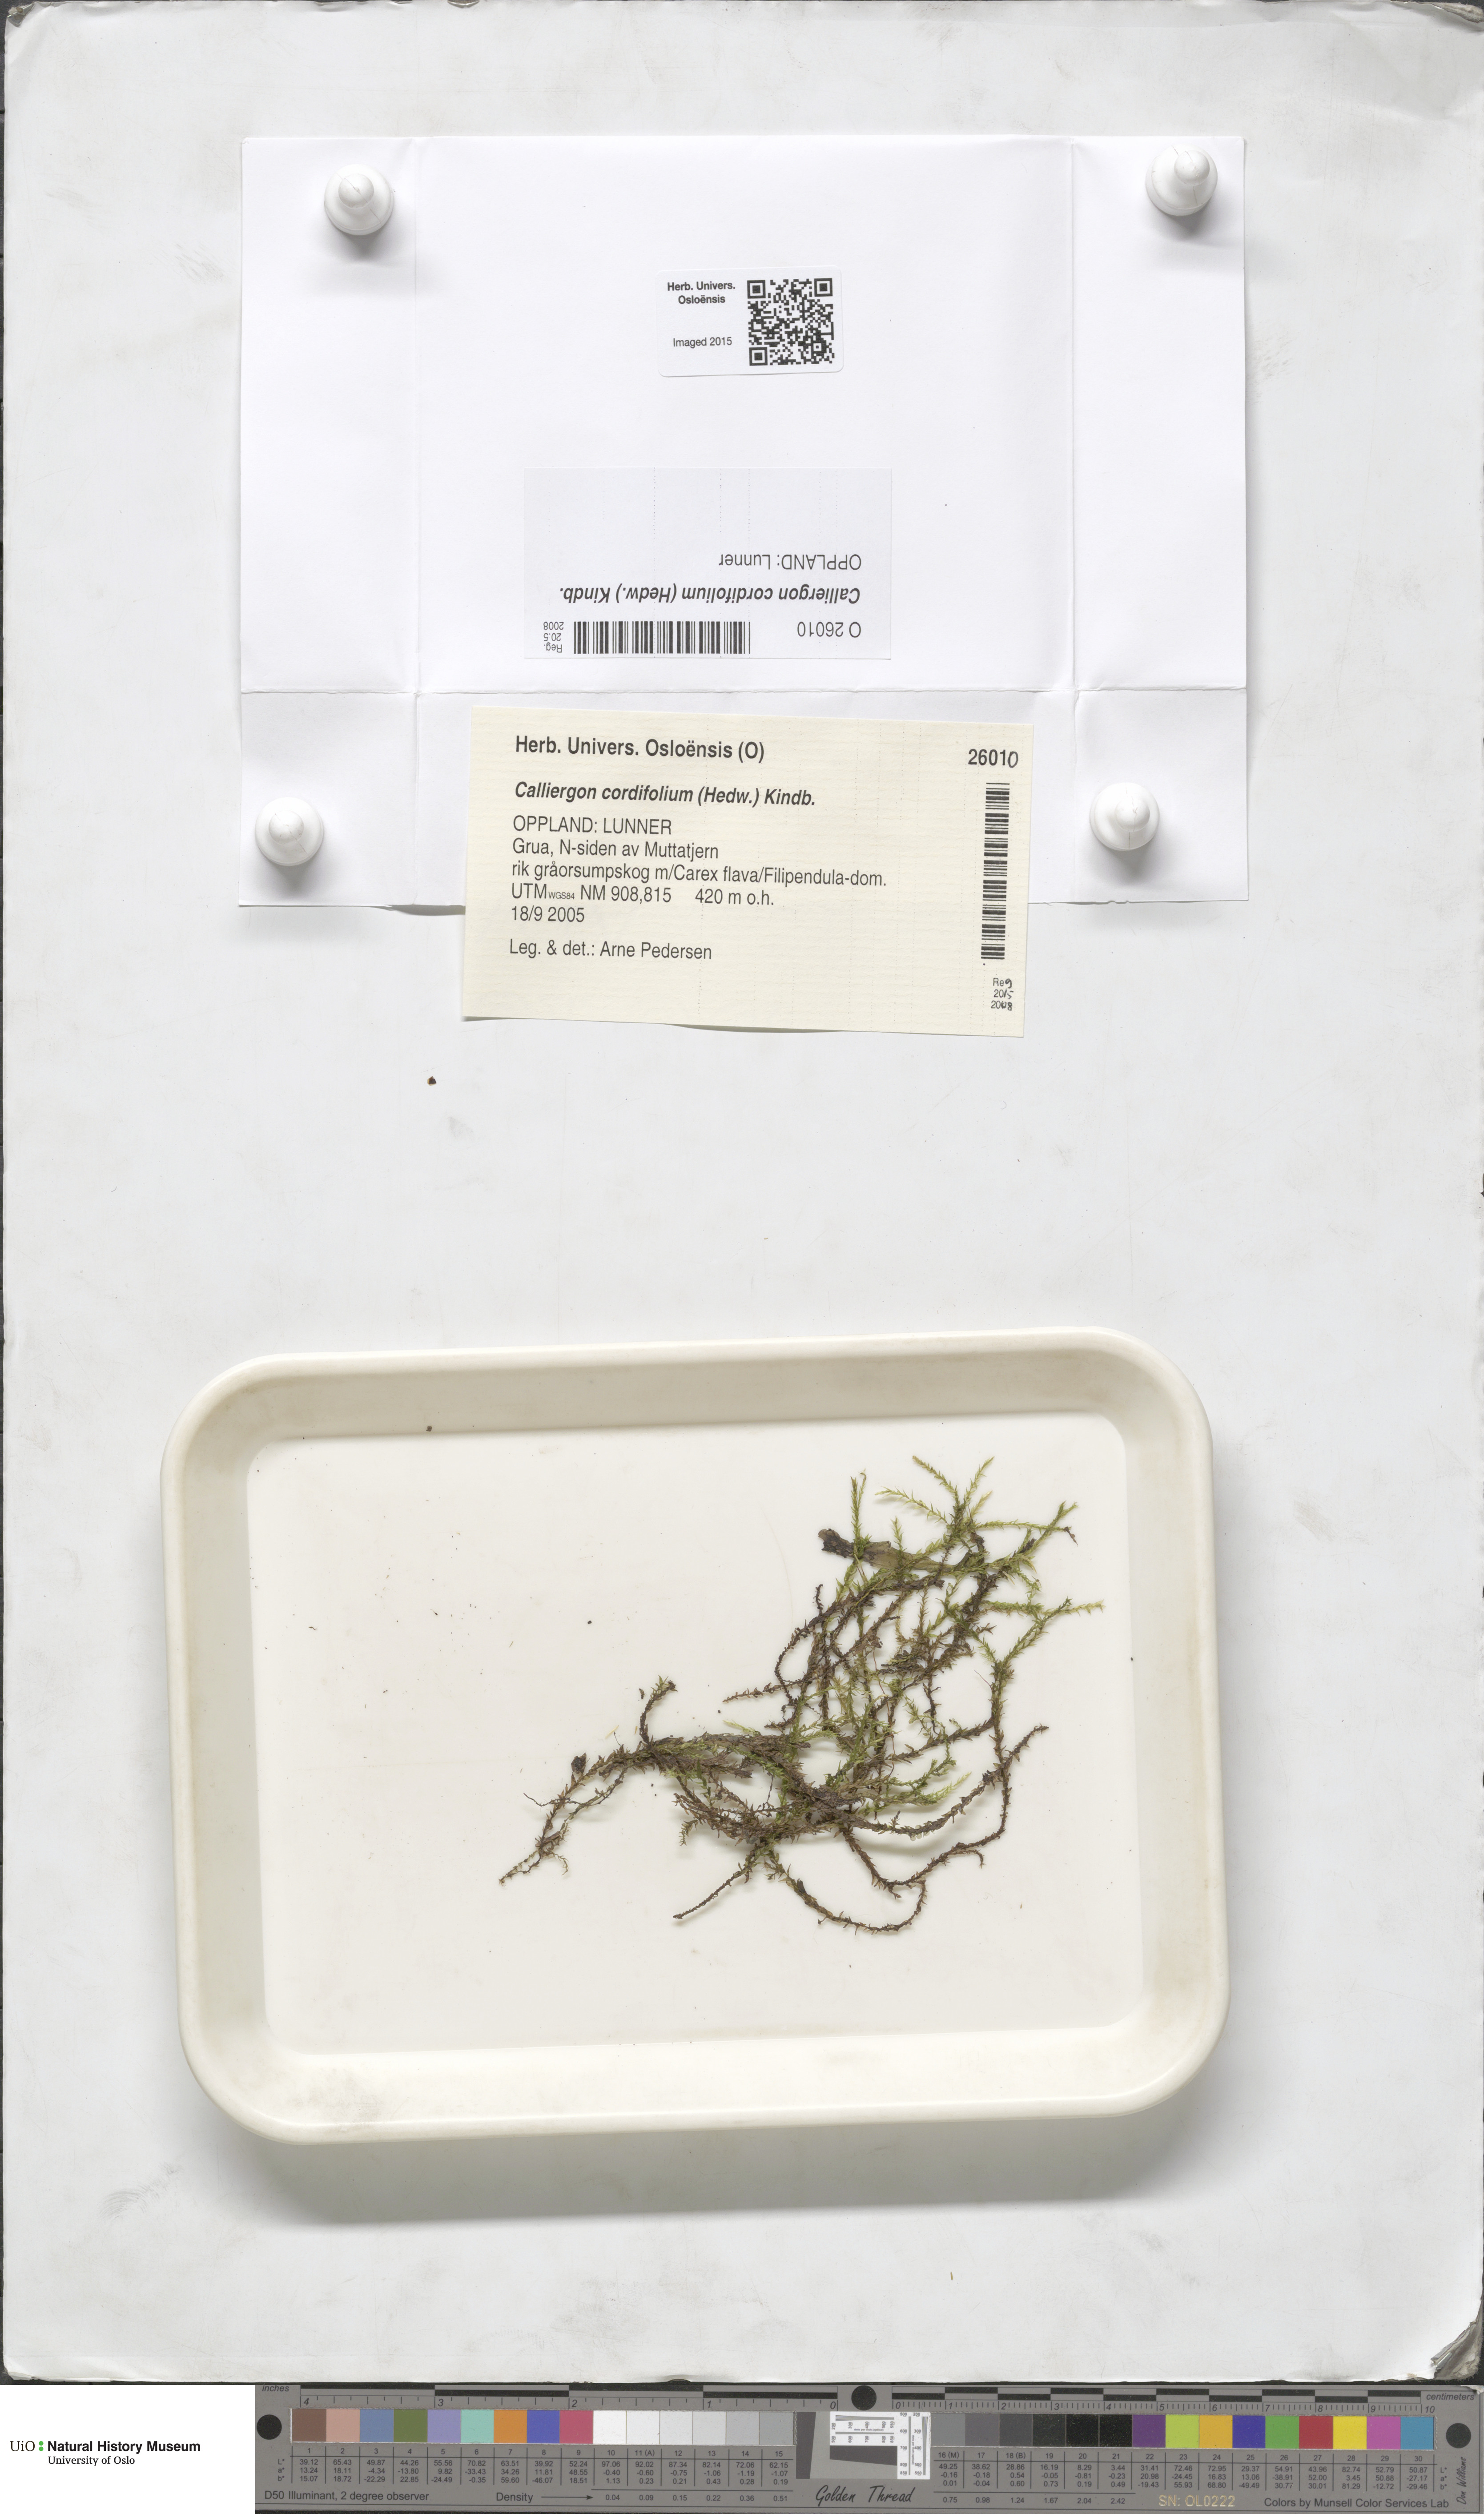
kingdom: Plantae
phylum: Bryophyta
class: Bryopsida
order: Hypnales
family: Calliergonaceae
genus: Calliergon
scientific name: Calliergon cordifolium
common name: Heart-leaved spear moss
